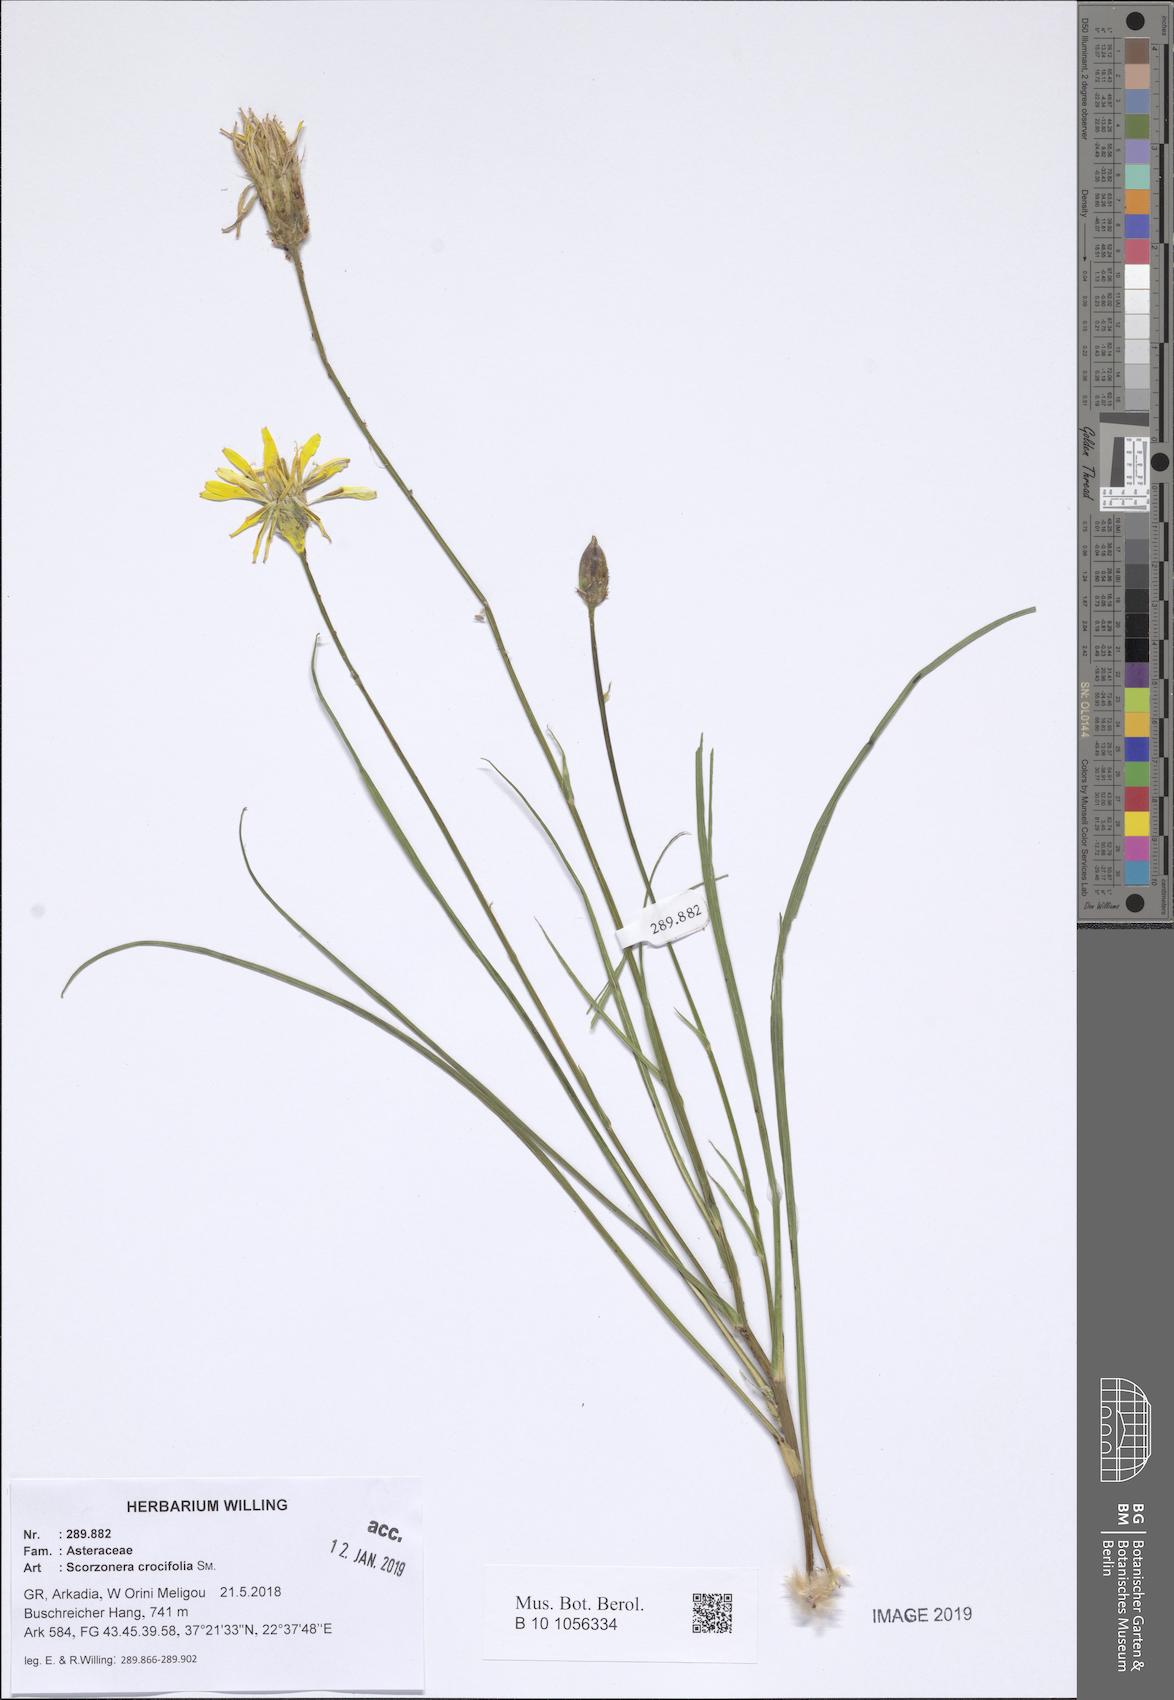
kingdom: Plantae
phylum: Tracheophyta
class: Magnoliopsida
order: Asterales
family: Asteraceae
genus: Pseudopodospermum
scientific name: Pseudopodospermum crocifolium
